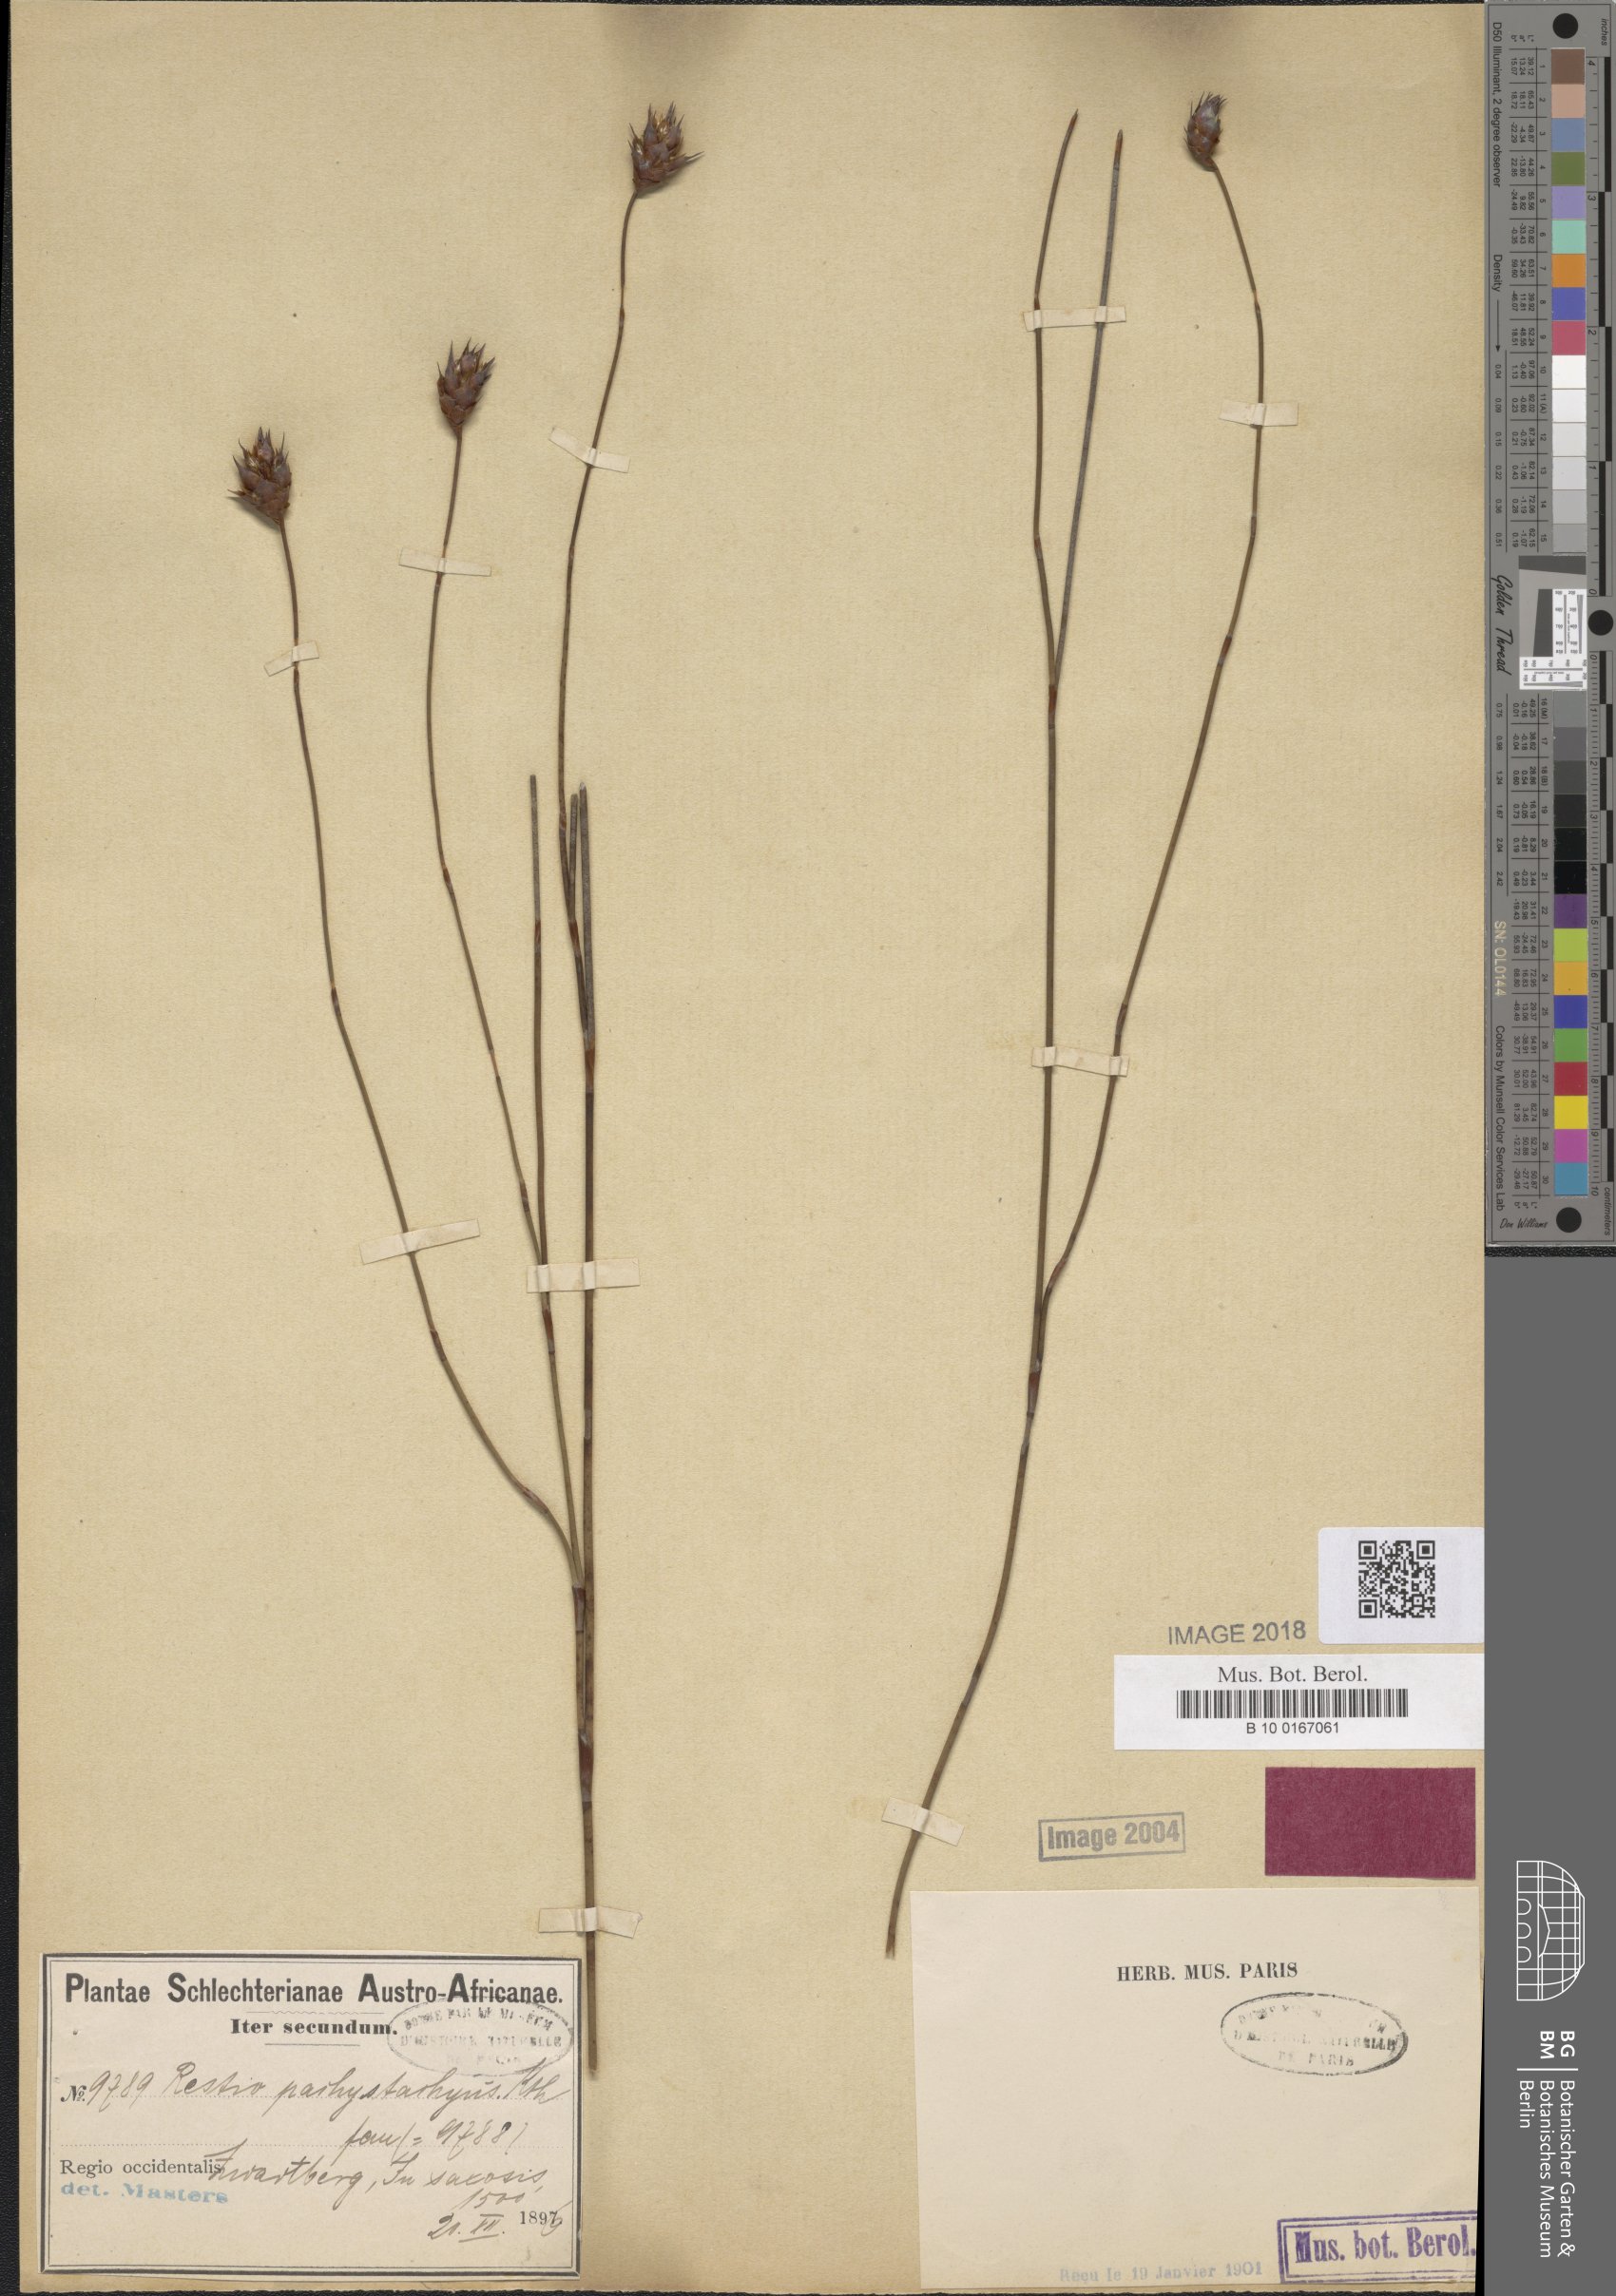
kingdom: Plantae
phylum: Tracheophyta
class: Liliopsida
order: Poales
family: Restionaceae
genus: Restio
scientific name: Restio pachystachyus
